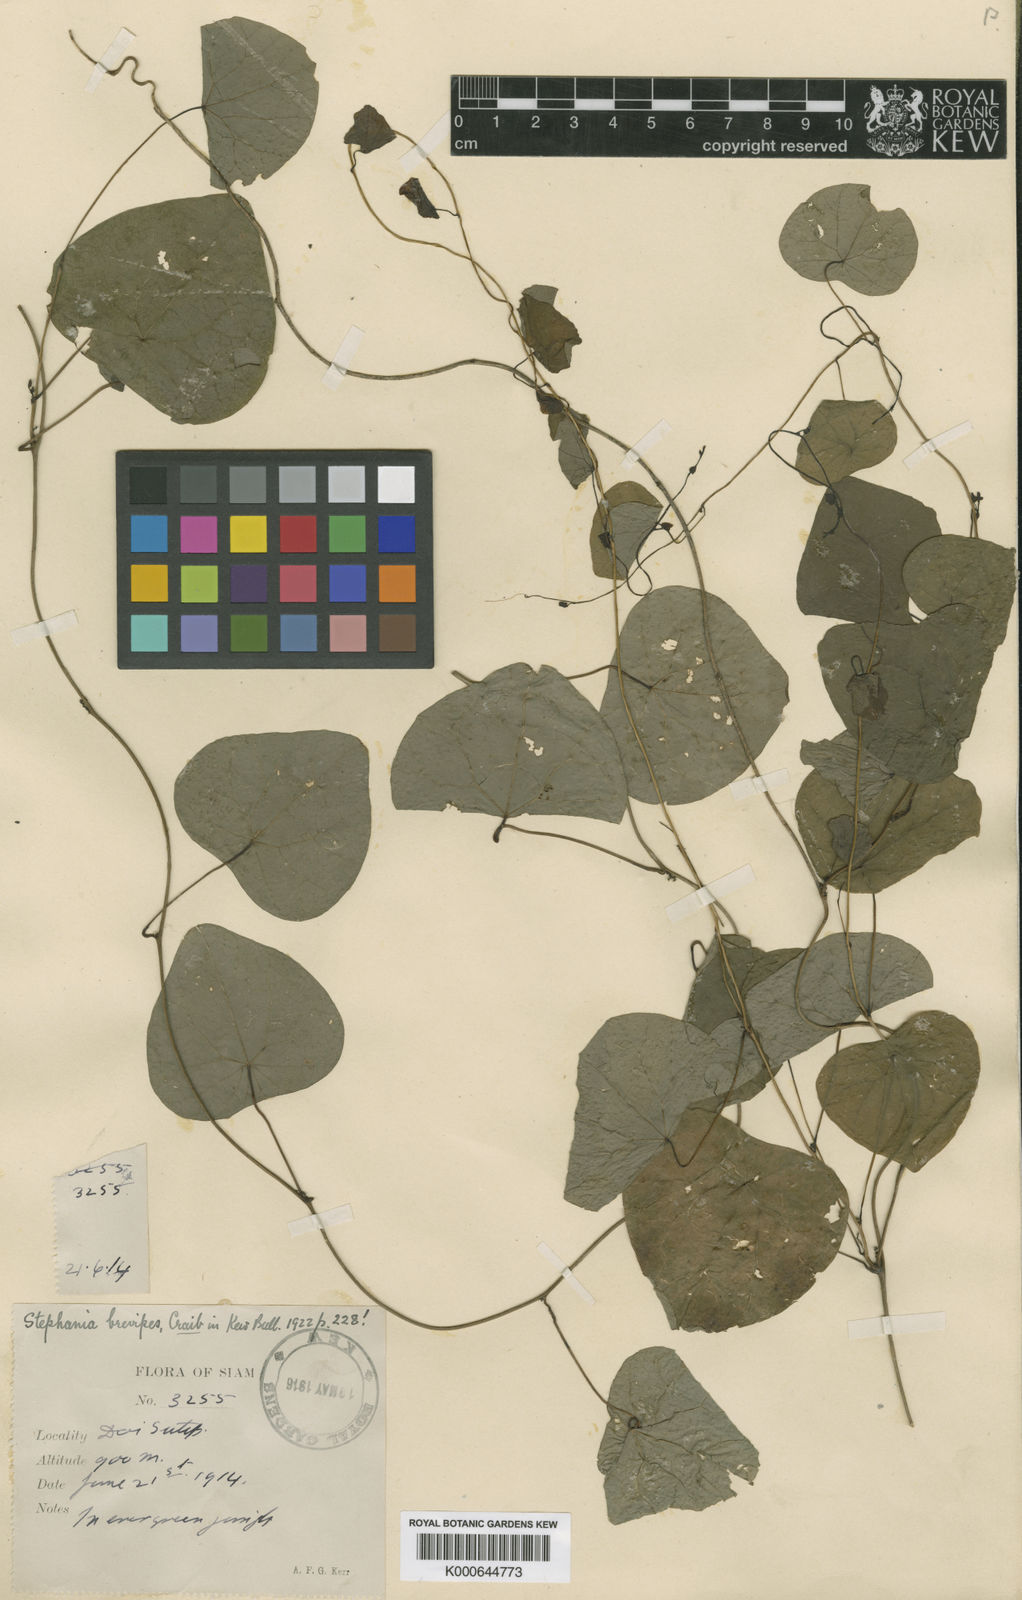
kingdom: Plantae
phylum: Tracheophyta
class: Magnoliopsida
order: Ranunculales
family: Menispermaceae
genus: Stephania
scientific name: Stephania brevipes
